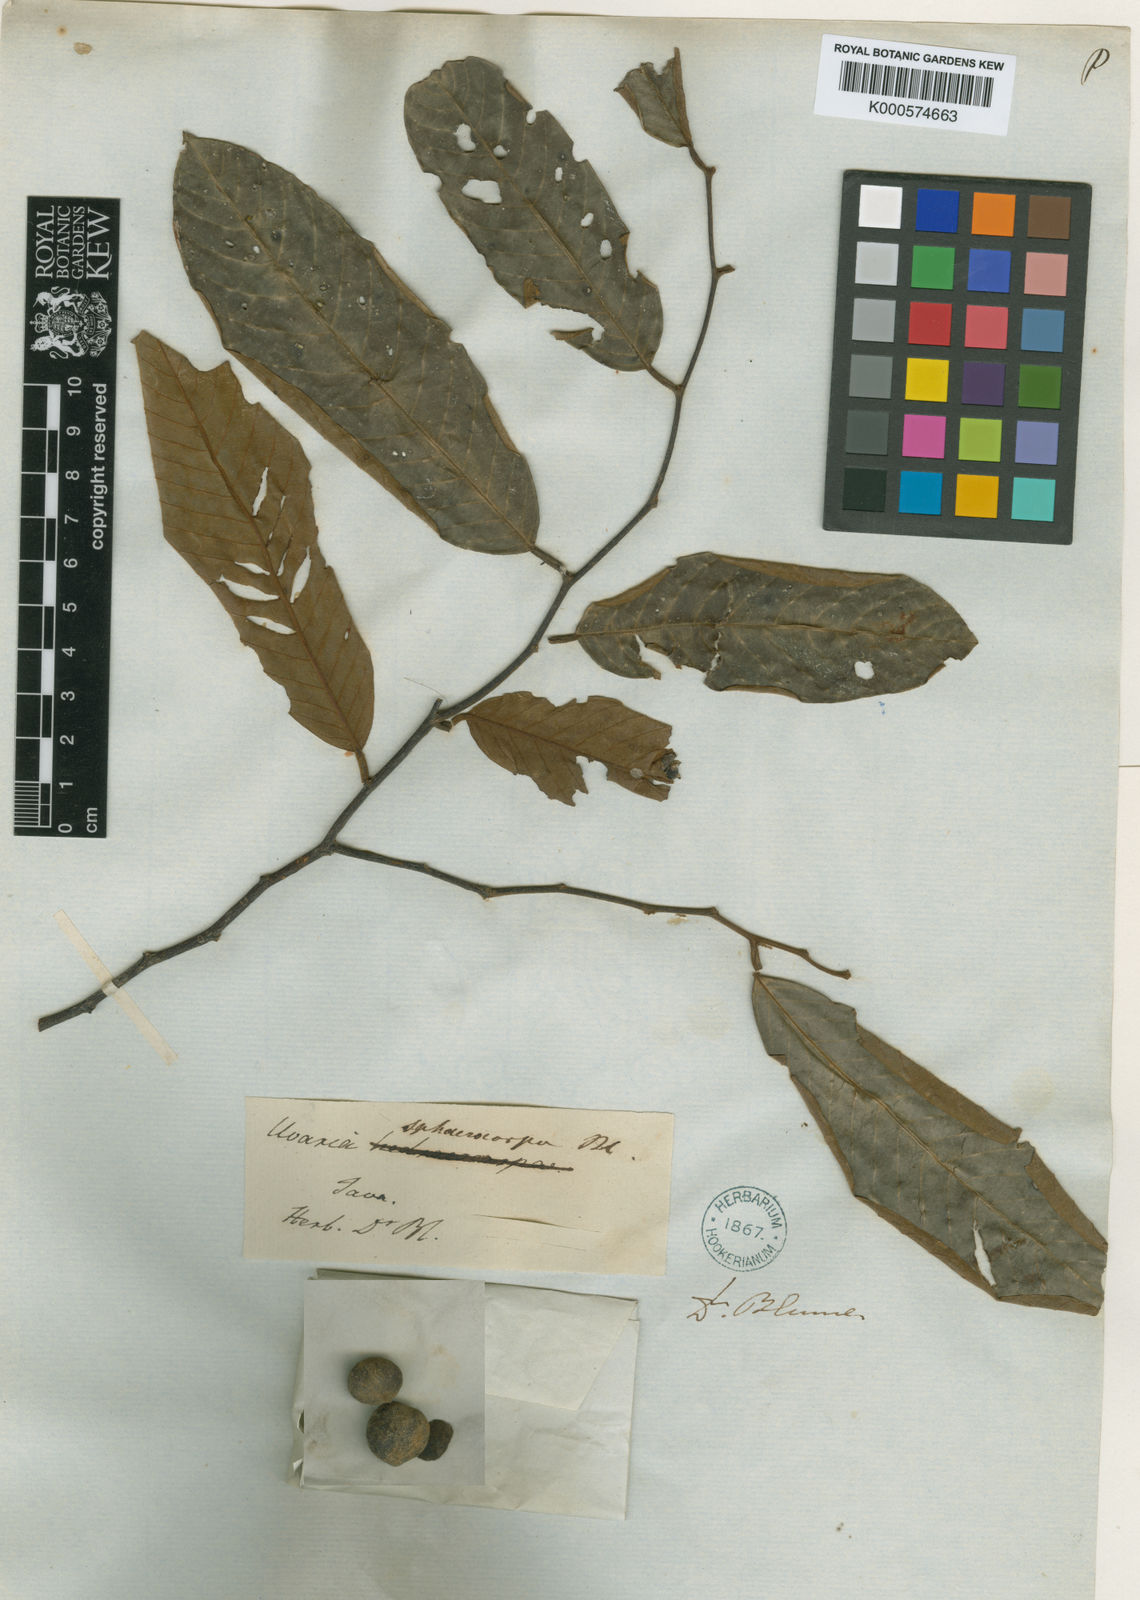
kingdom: Plantae
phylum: Tracheophyta
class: Magnoliopsida
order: Magnoliales
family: Annonaceae
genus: Fissistigma
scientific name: Fissistigma sphaerocarpum
